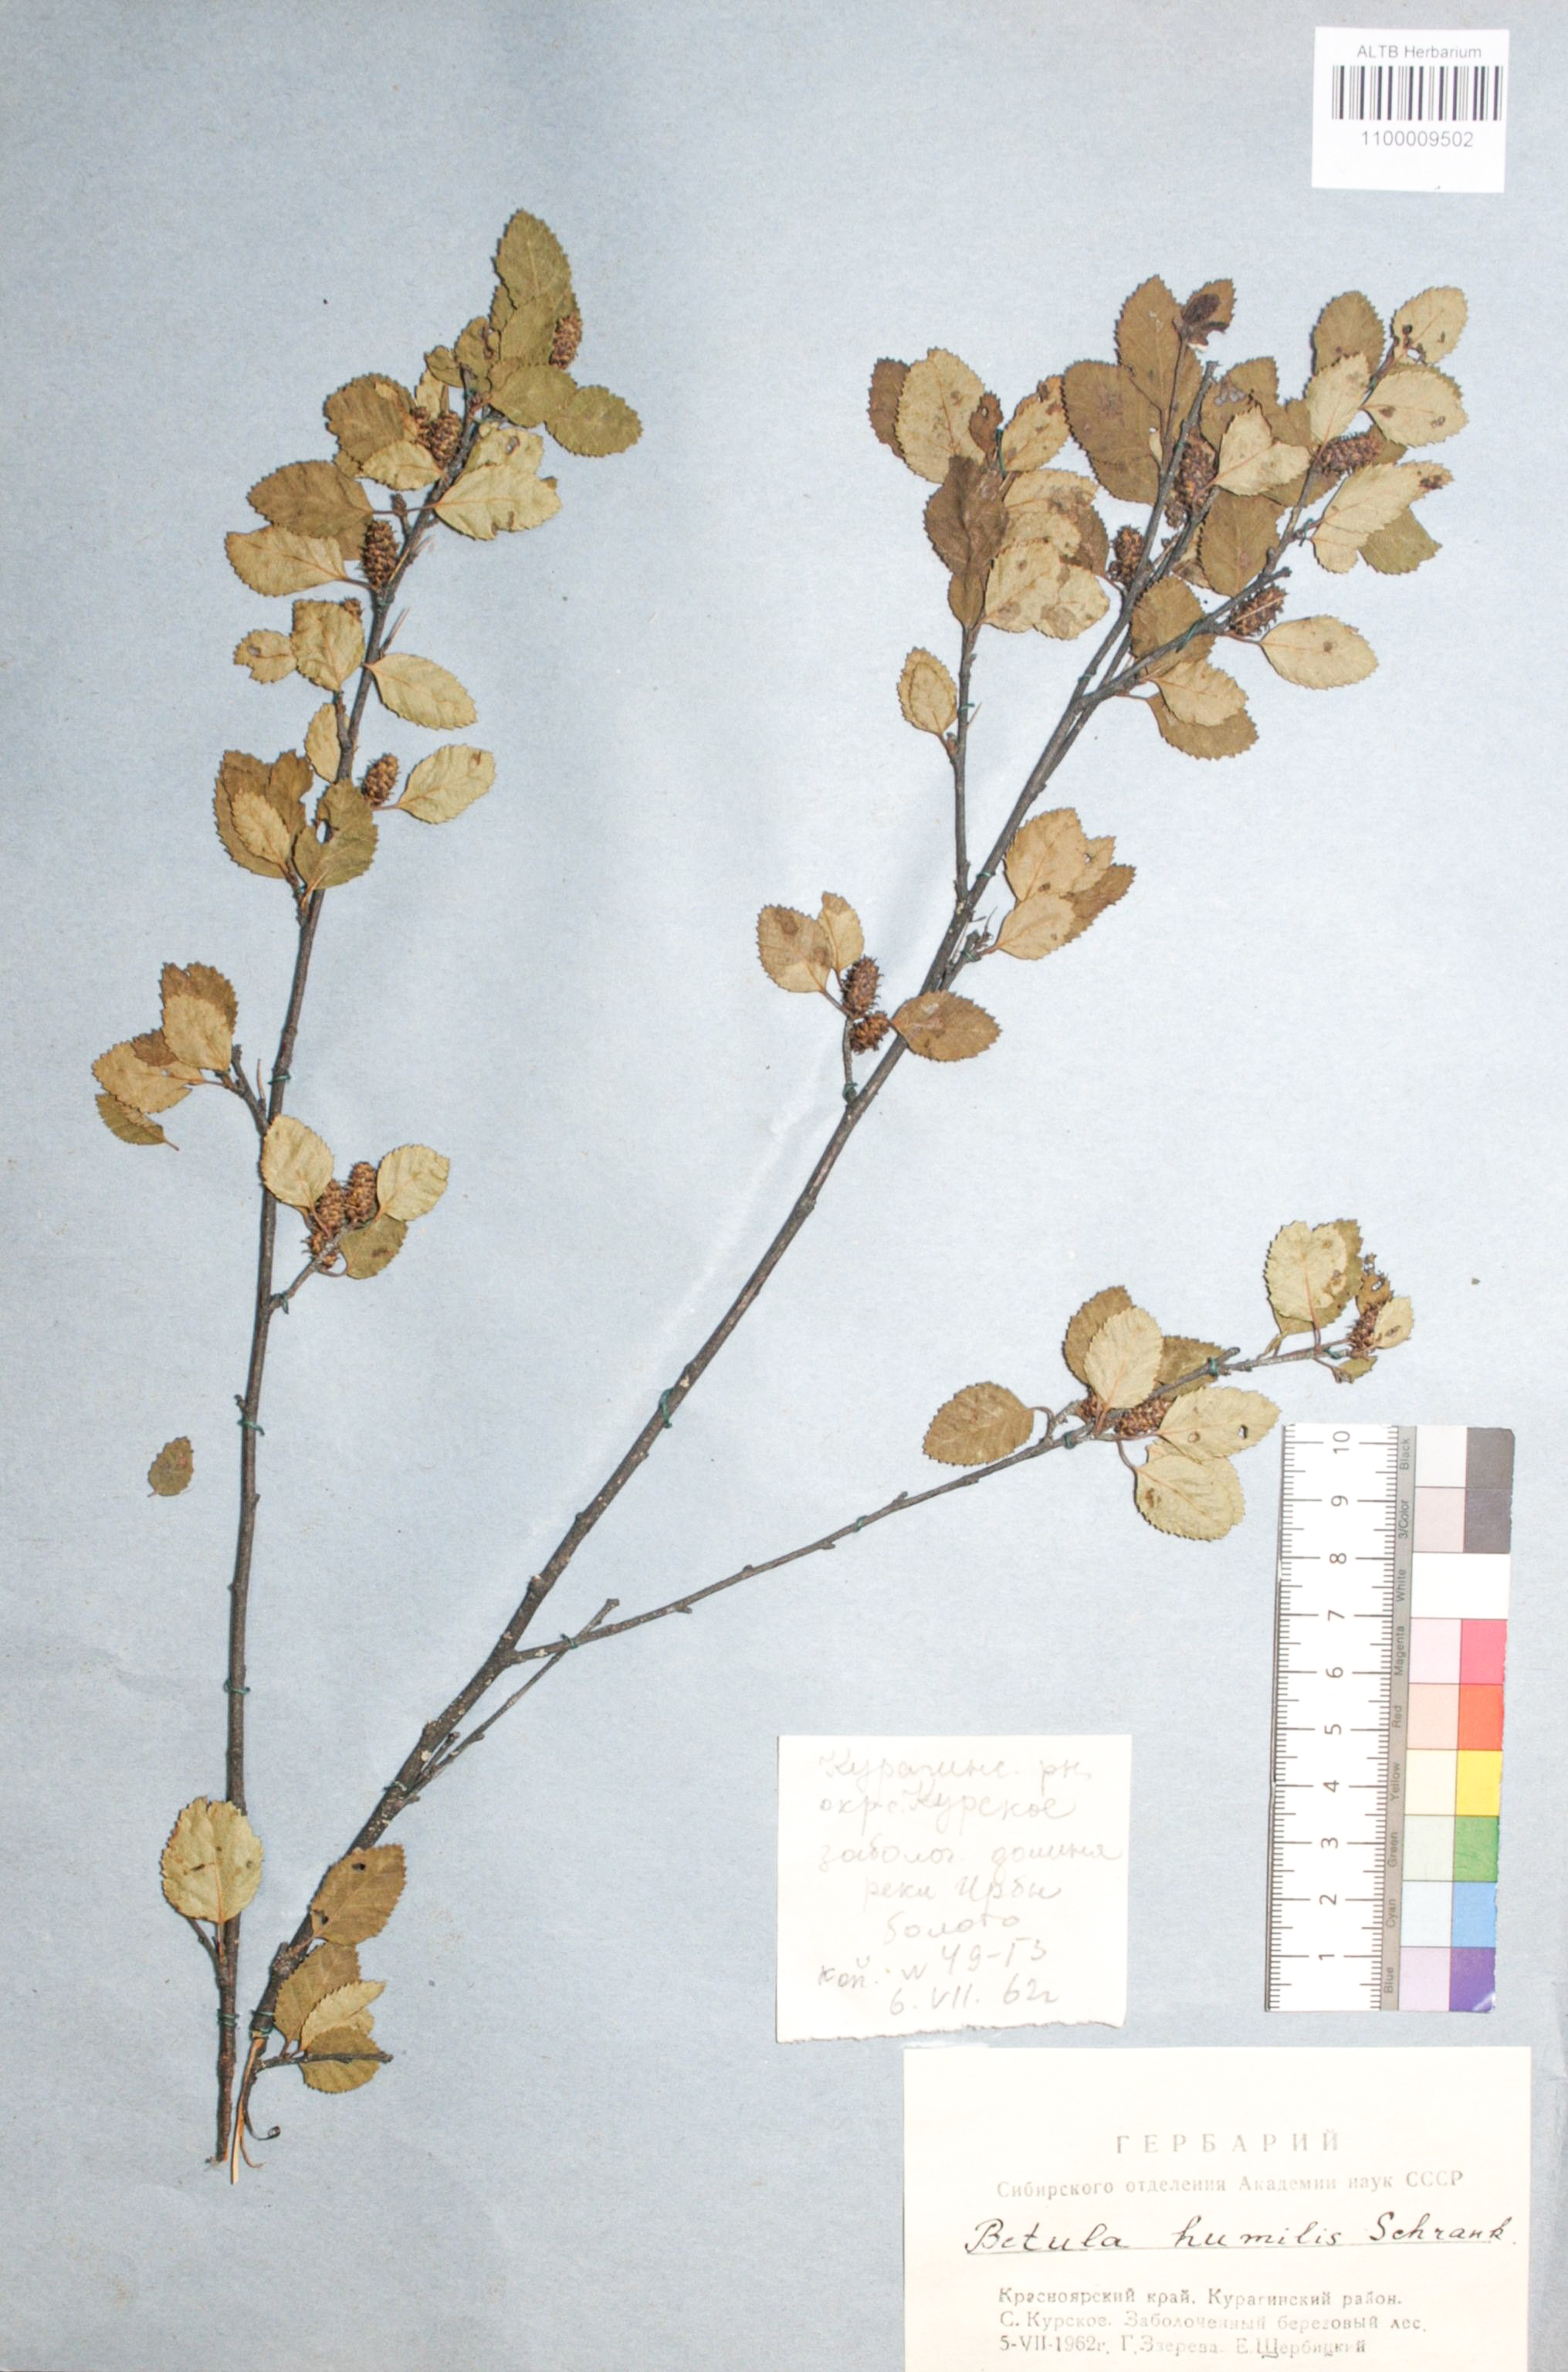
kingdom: Plantae
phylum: Tracheophyta
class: Magnoliopsida
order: Fagales
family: Betulaceae
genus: Betula
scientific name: Betula humilis
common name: Shrubby birch
